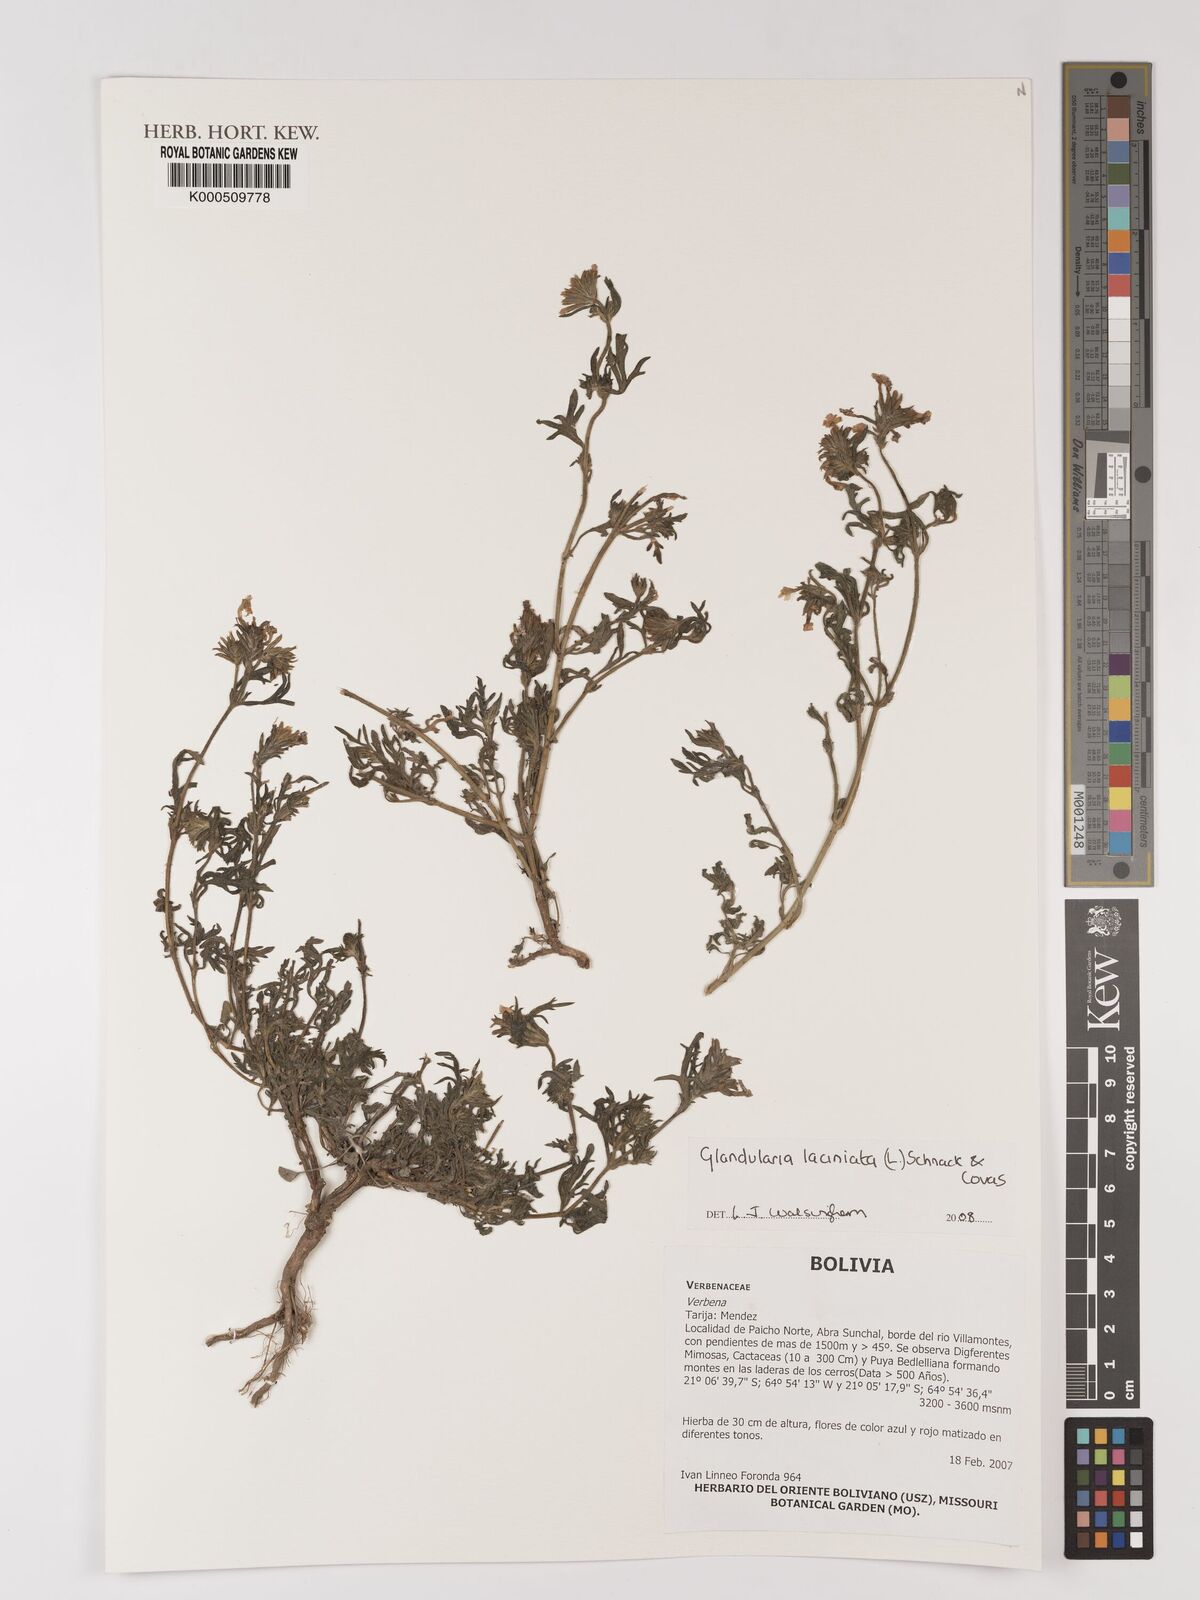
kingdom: Plantae
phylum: Tracheophyta
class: Magnoliopsida
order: Lamiales
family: Verbenaceae
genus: Verbena
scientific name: Verbena laciniata
